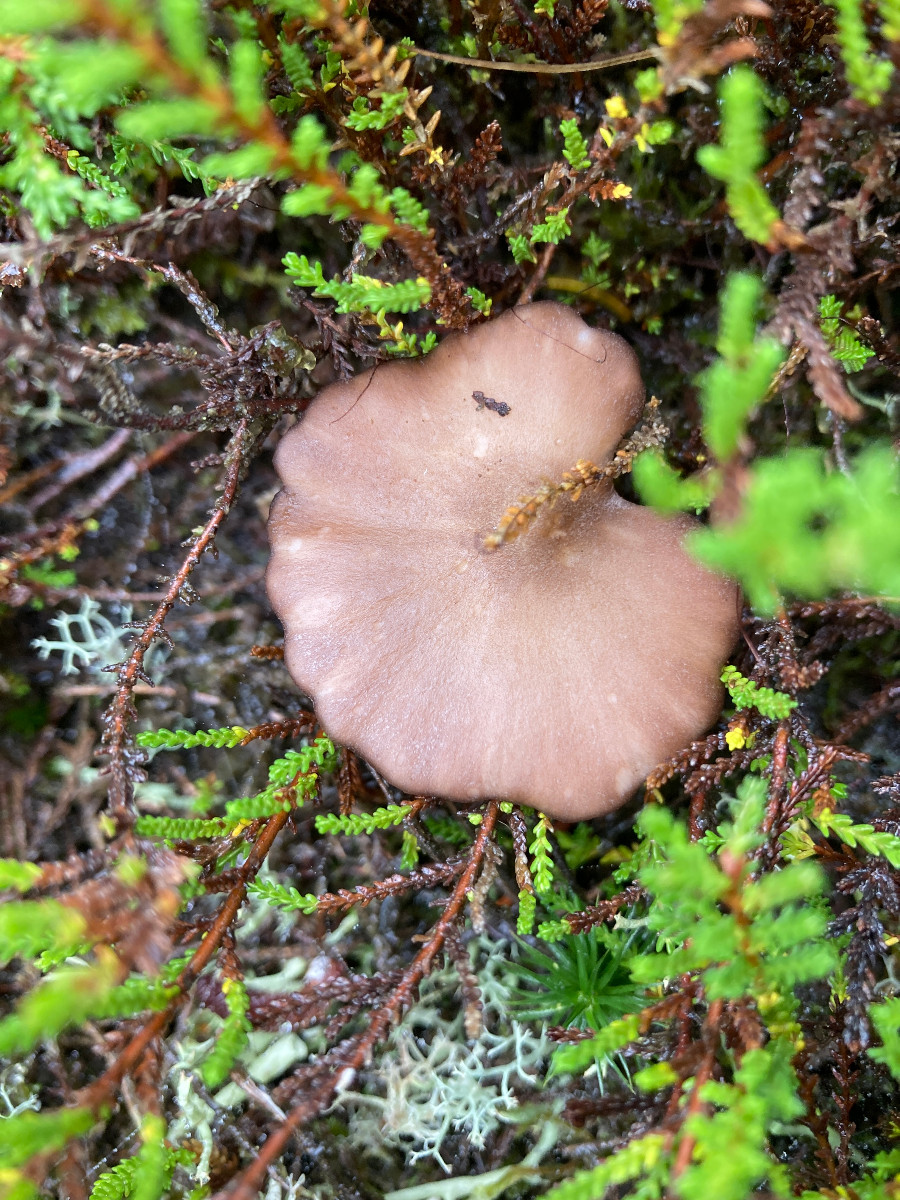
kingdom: Fungi
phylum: Basidiomycota
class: Agaricomycetes
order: Agaricales
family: Entolomataceae
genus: Entoloma
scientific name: Entoloma
